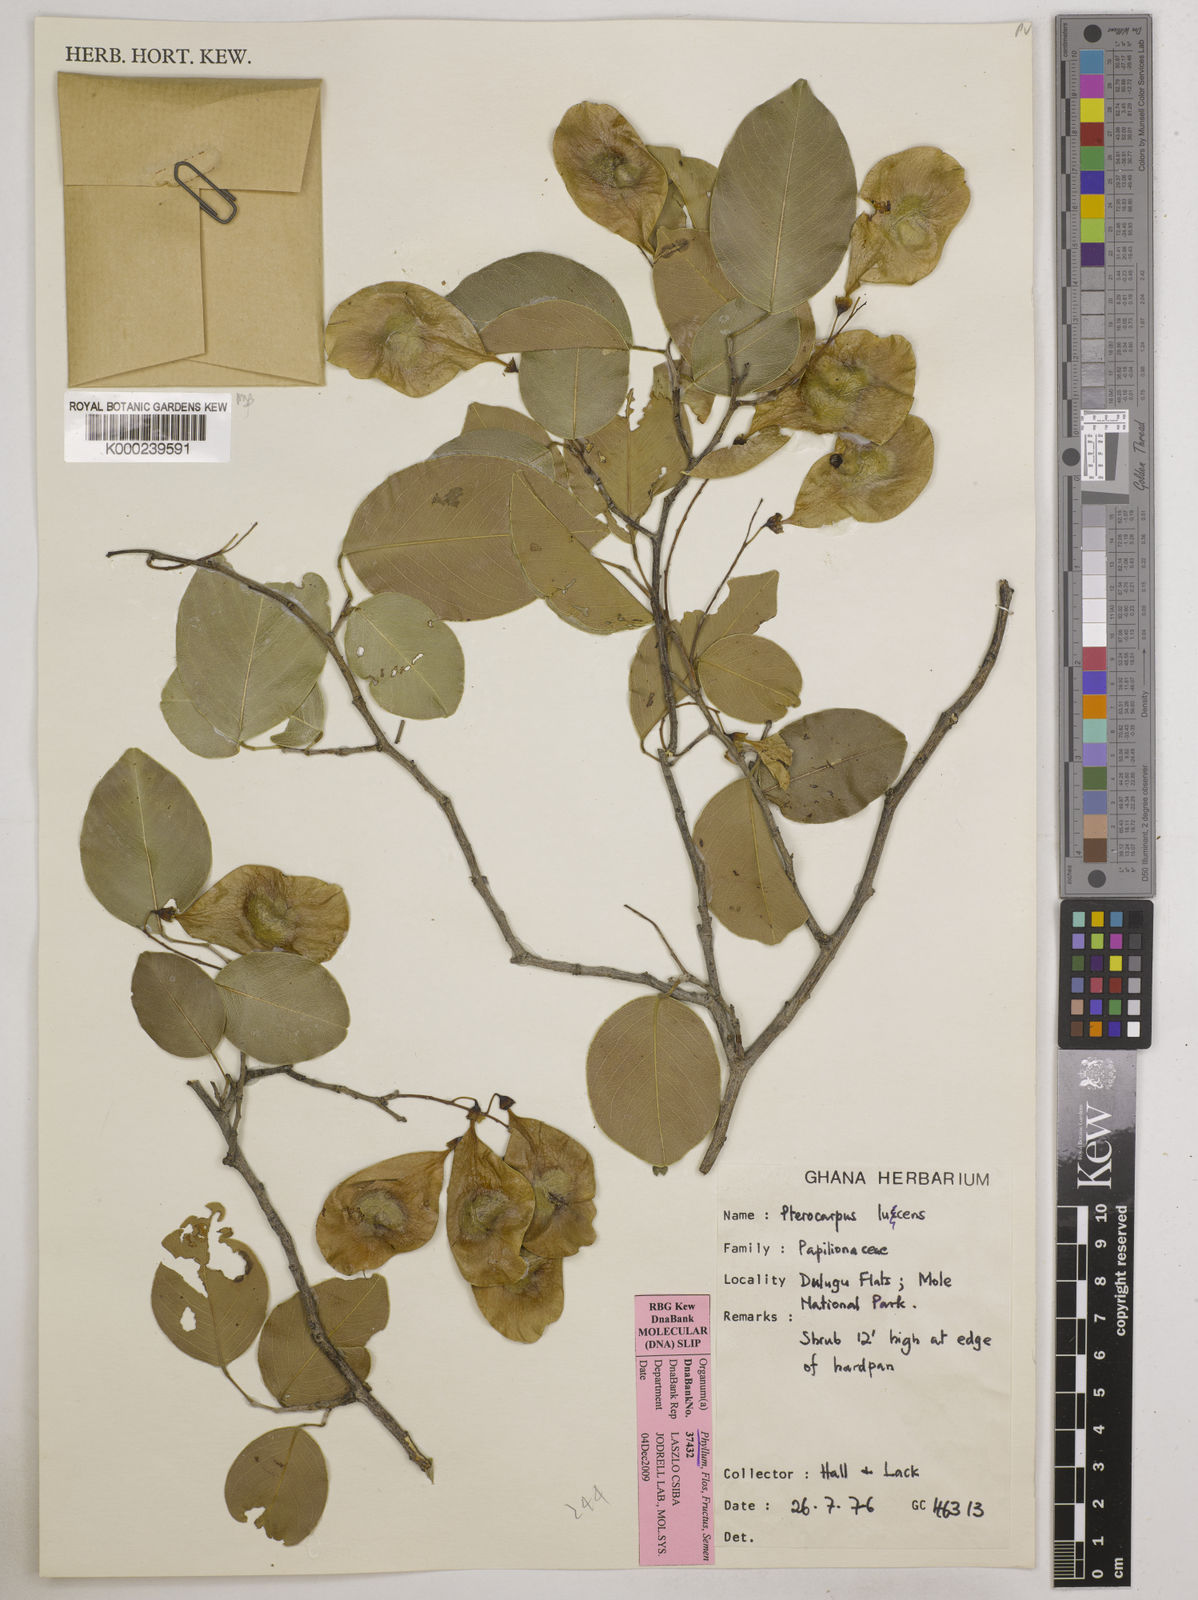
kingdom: Plantae
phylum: Tracheophyta
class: Magnoliopsida
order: Fabales
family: Fabaceae
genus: Pterocarpus
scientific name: Pterocarpus lucens
